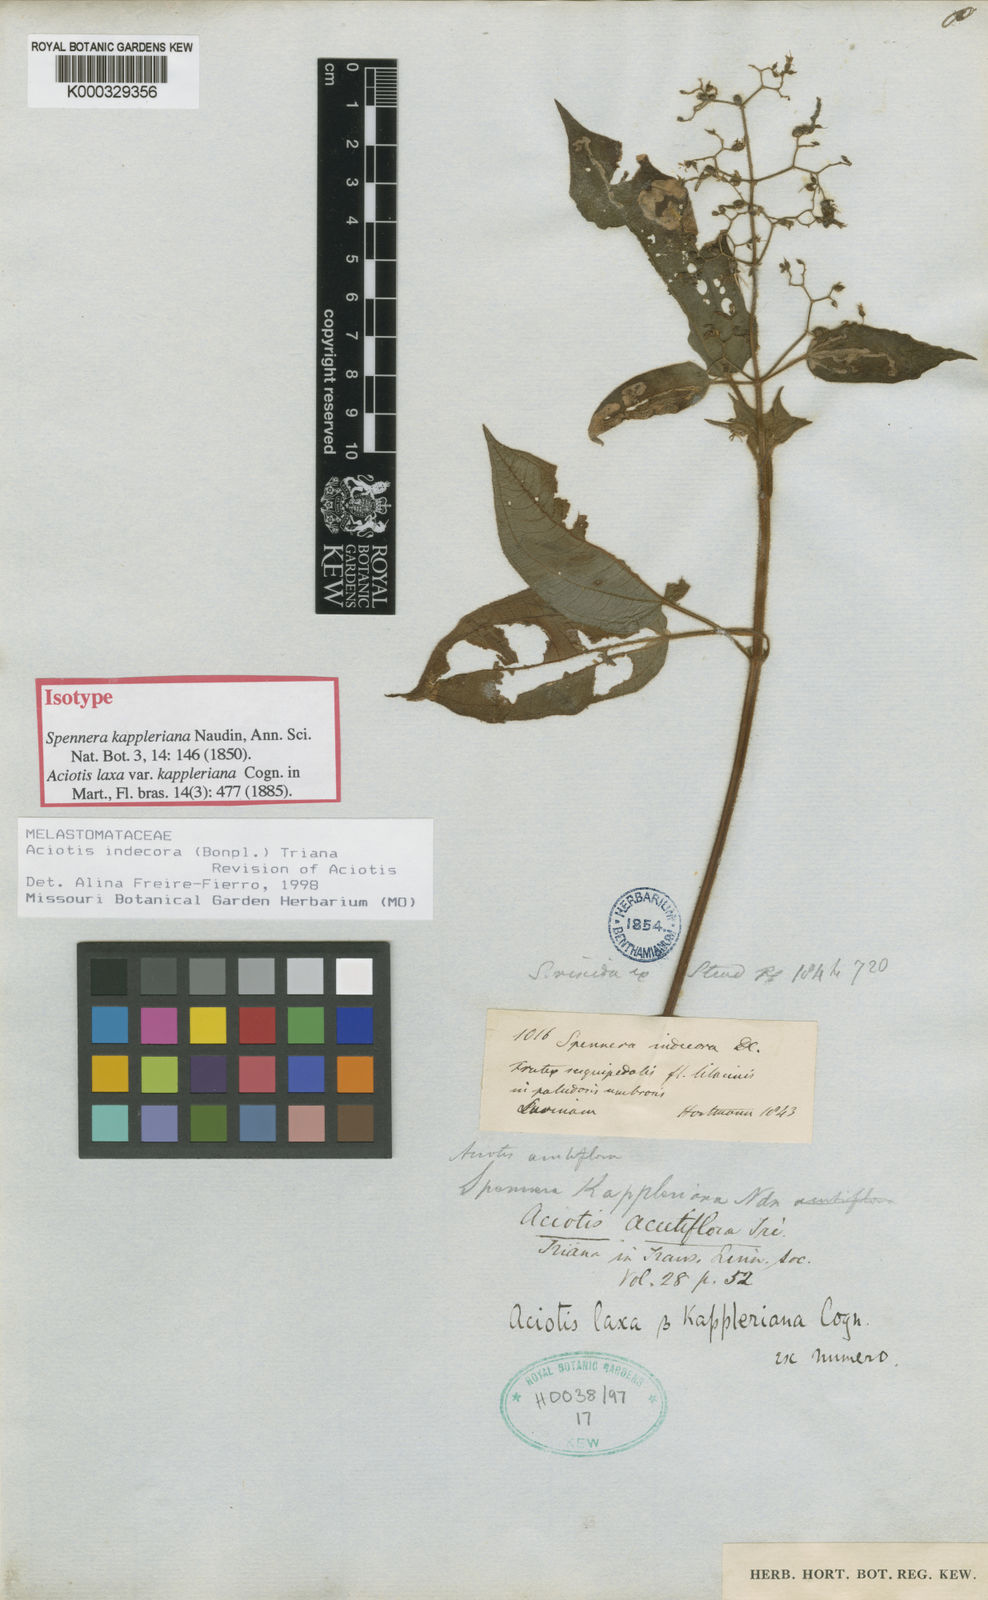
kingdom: Plantae
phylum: Tracheophyta
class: Magnoliopsida
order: Myrtales
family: Melastomataceae
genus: Aciotis
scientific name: Aciotis indecora
